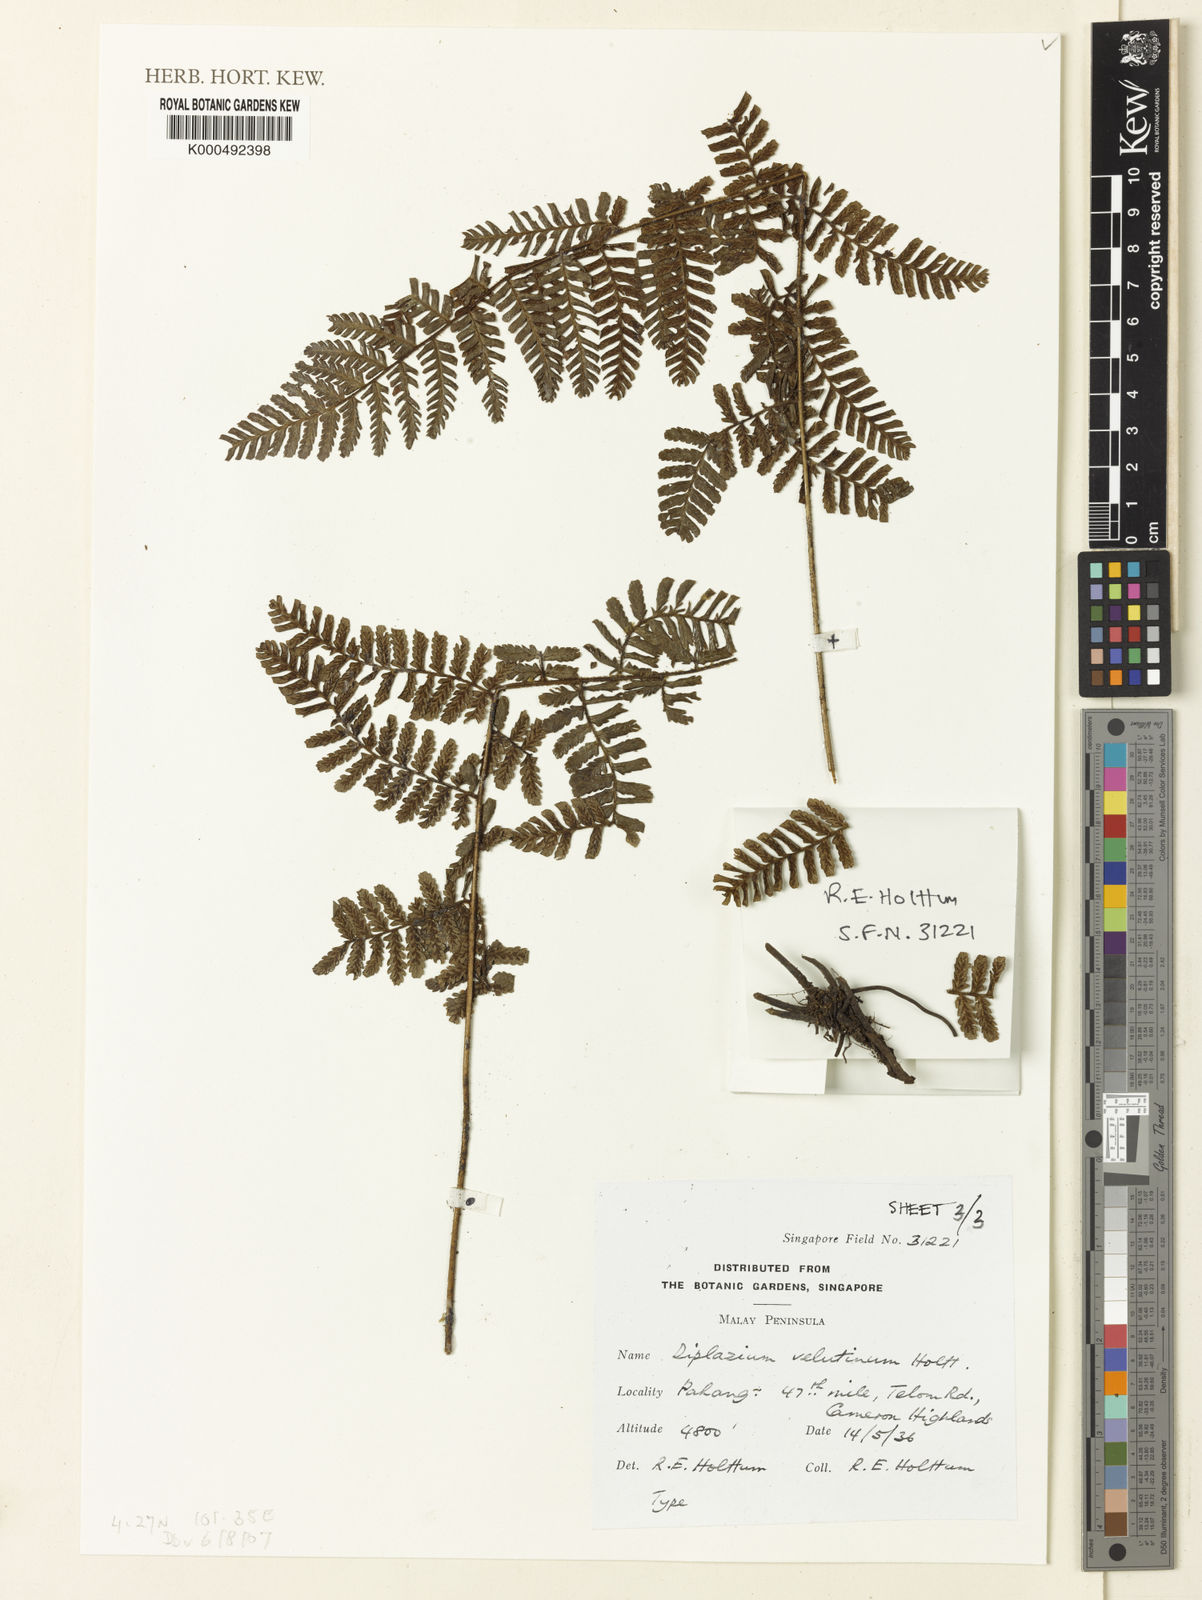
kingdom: Plantae
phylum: Tracheophyta
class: Polypodiopsida
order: Polypodiales
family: Athyriaceae
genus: Diplazium
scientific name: Diplazium velutinum
